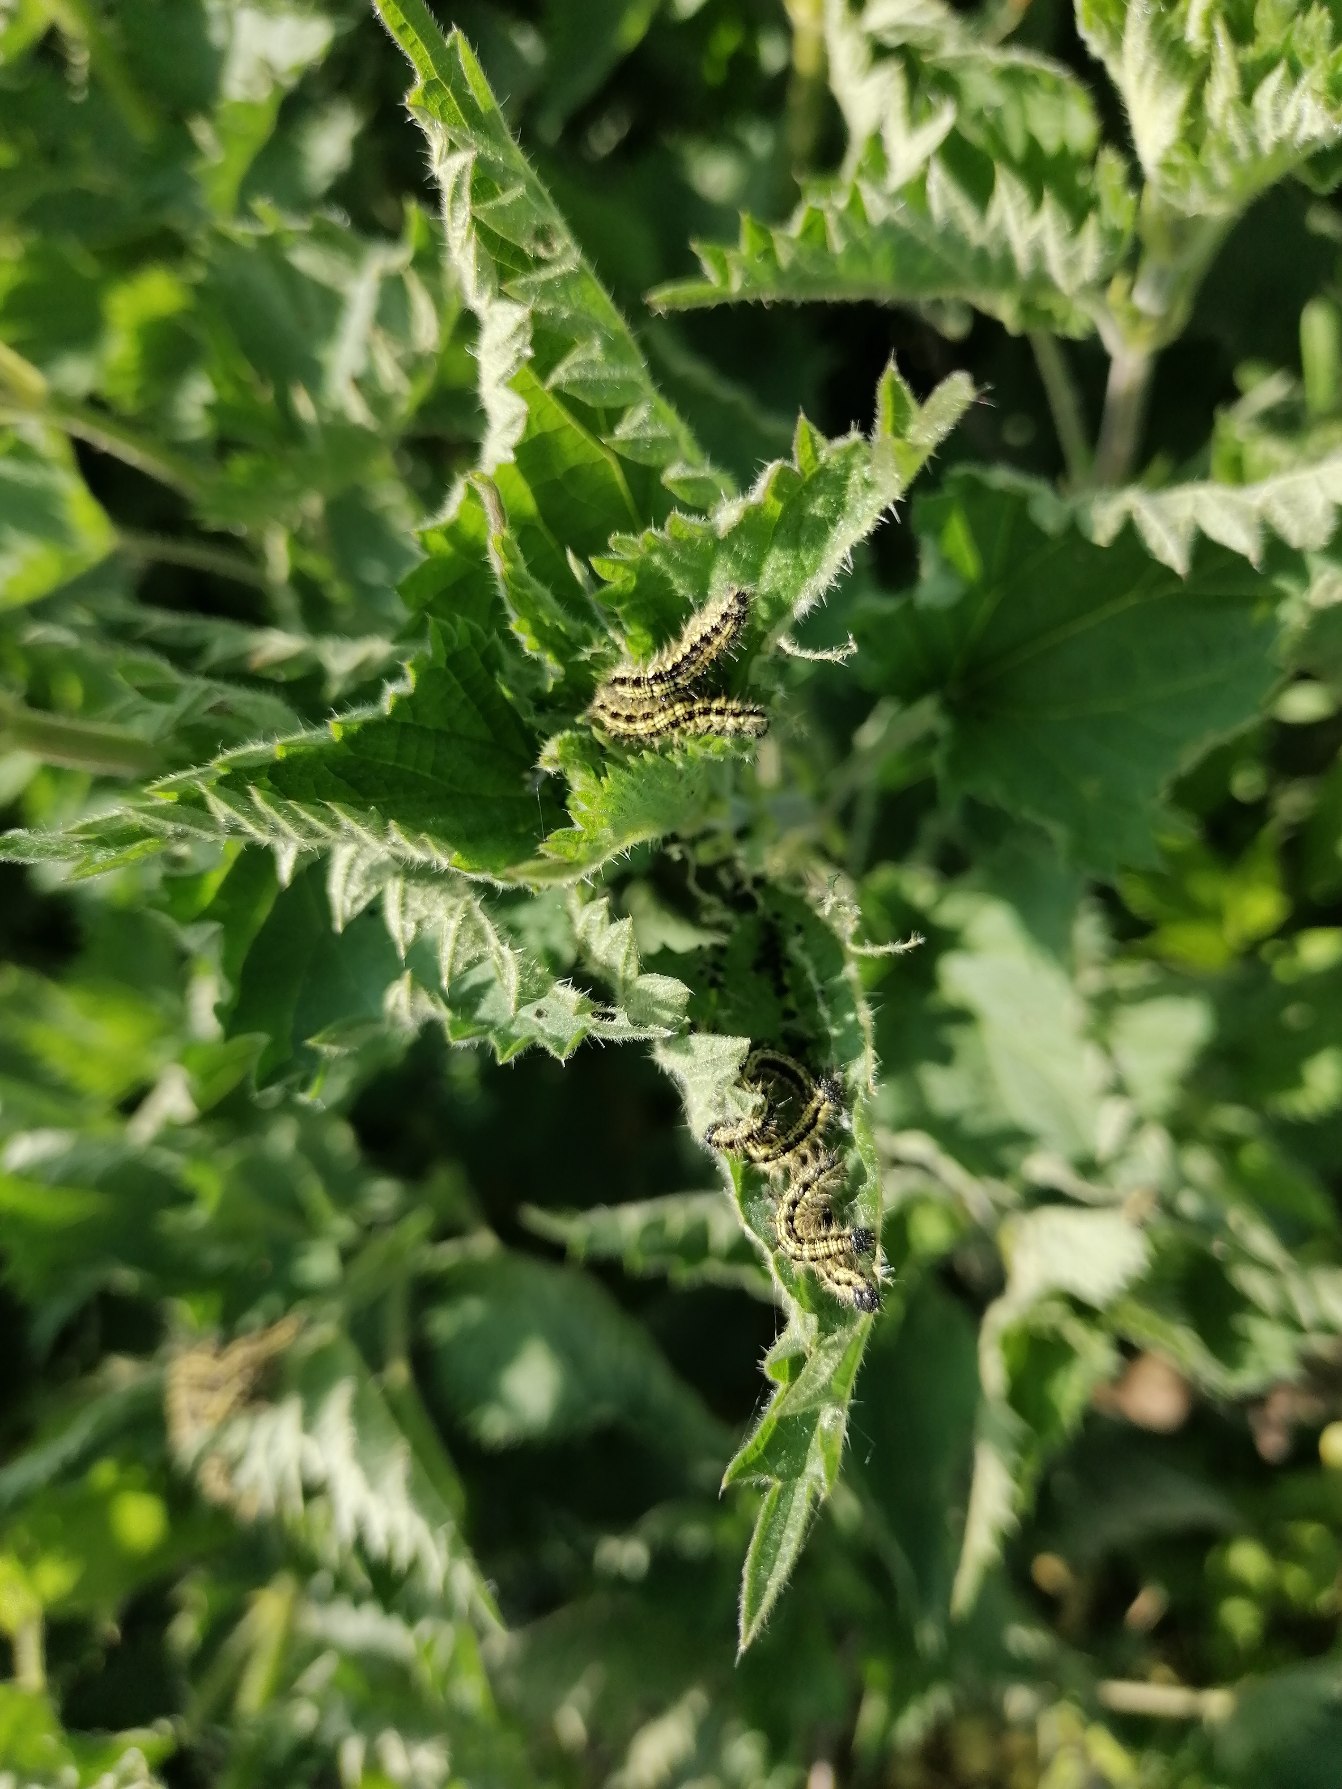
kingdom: Animalia
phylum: Arthropoda
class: Insecta
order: Lepidoptera
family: Nymphalidae
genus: Aglais
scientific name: Aglais urticae
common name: Nældens takvinge
